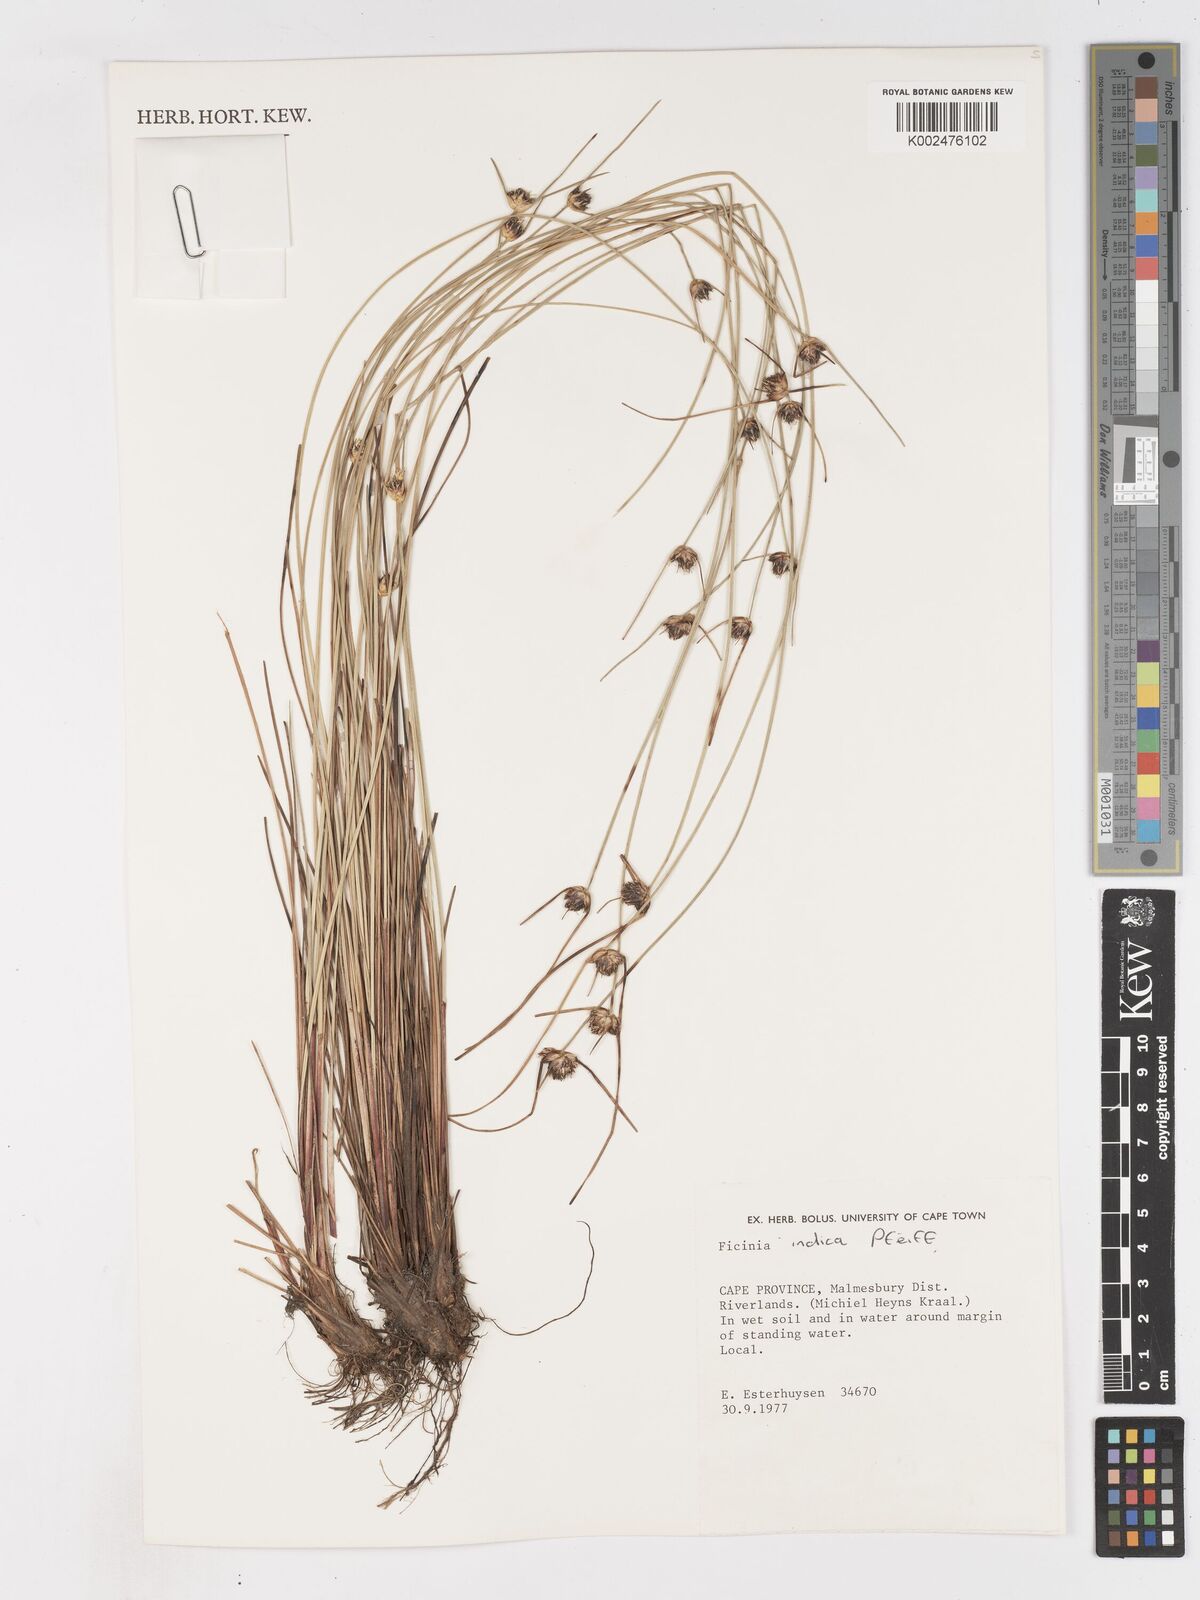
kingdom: Plantae
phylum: Tracheophyta
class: Liliopsida
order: Poales
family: Cyperaceae
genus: Ficinia
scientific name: Ficinia indica
